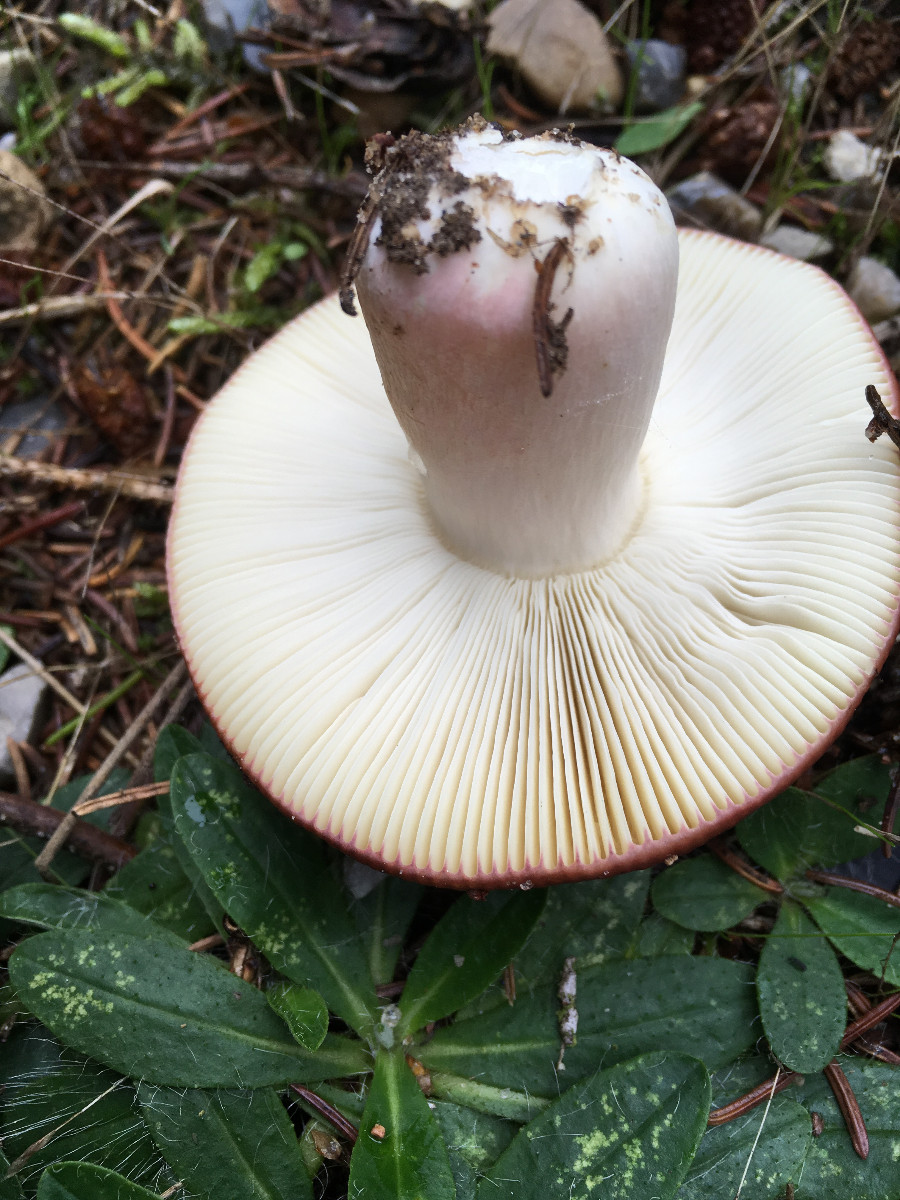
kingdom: Fungi
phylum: Basidiomycota
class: Agaricomycetes
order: Russulales
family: Russulaceae
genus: Russula
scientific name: Russula
